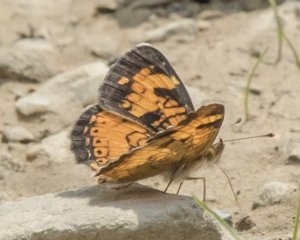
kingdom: Animalia
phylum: Arthropoda
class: Insecta
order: Lepidoptera
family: Nymphalidae
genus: Phyciodes
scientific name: Phyciodes tharos
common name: Northern Crescent
